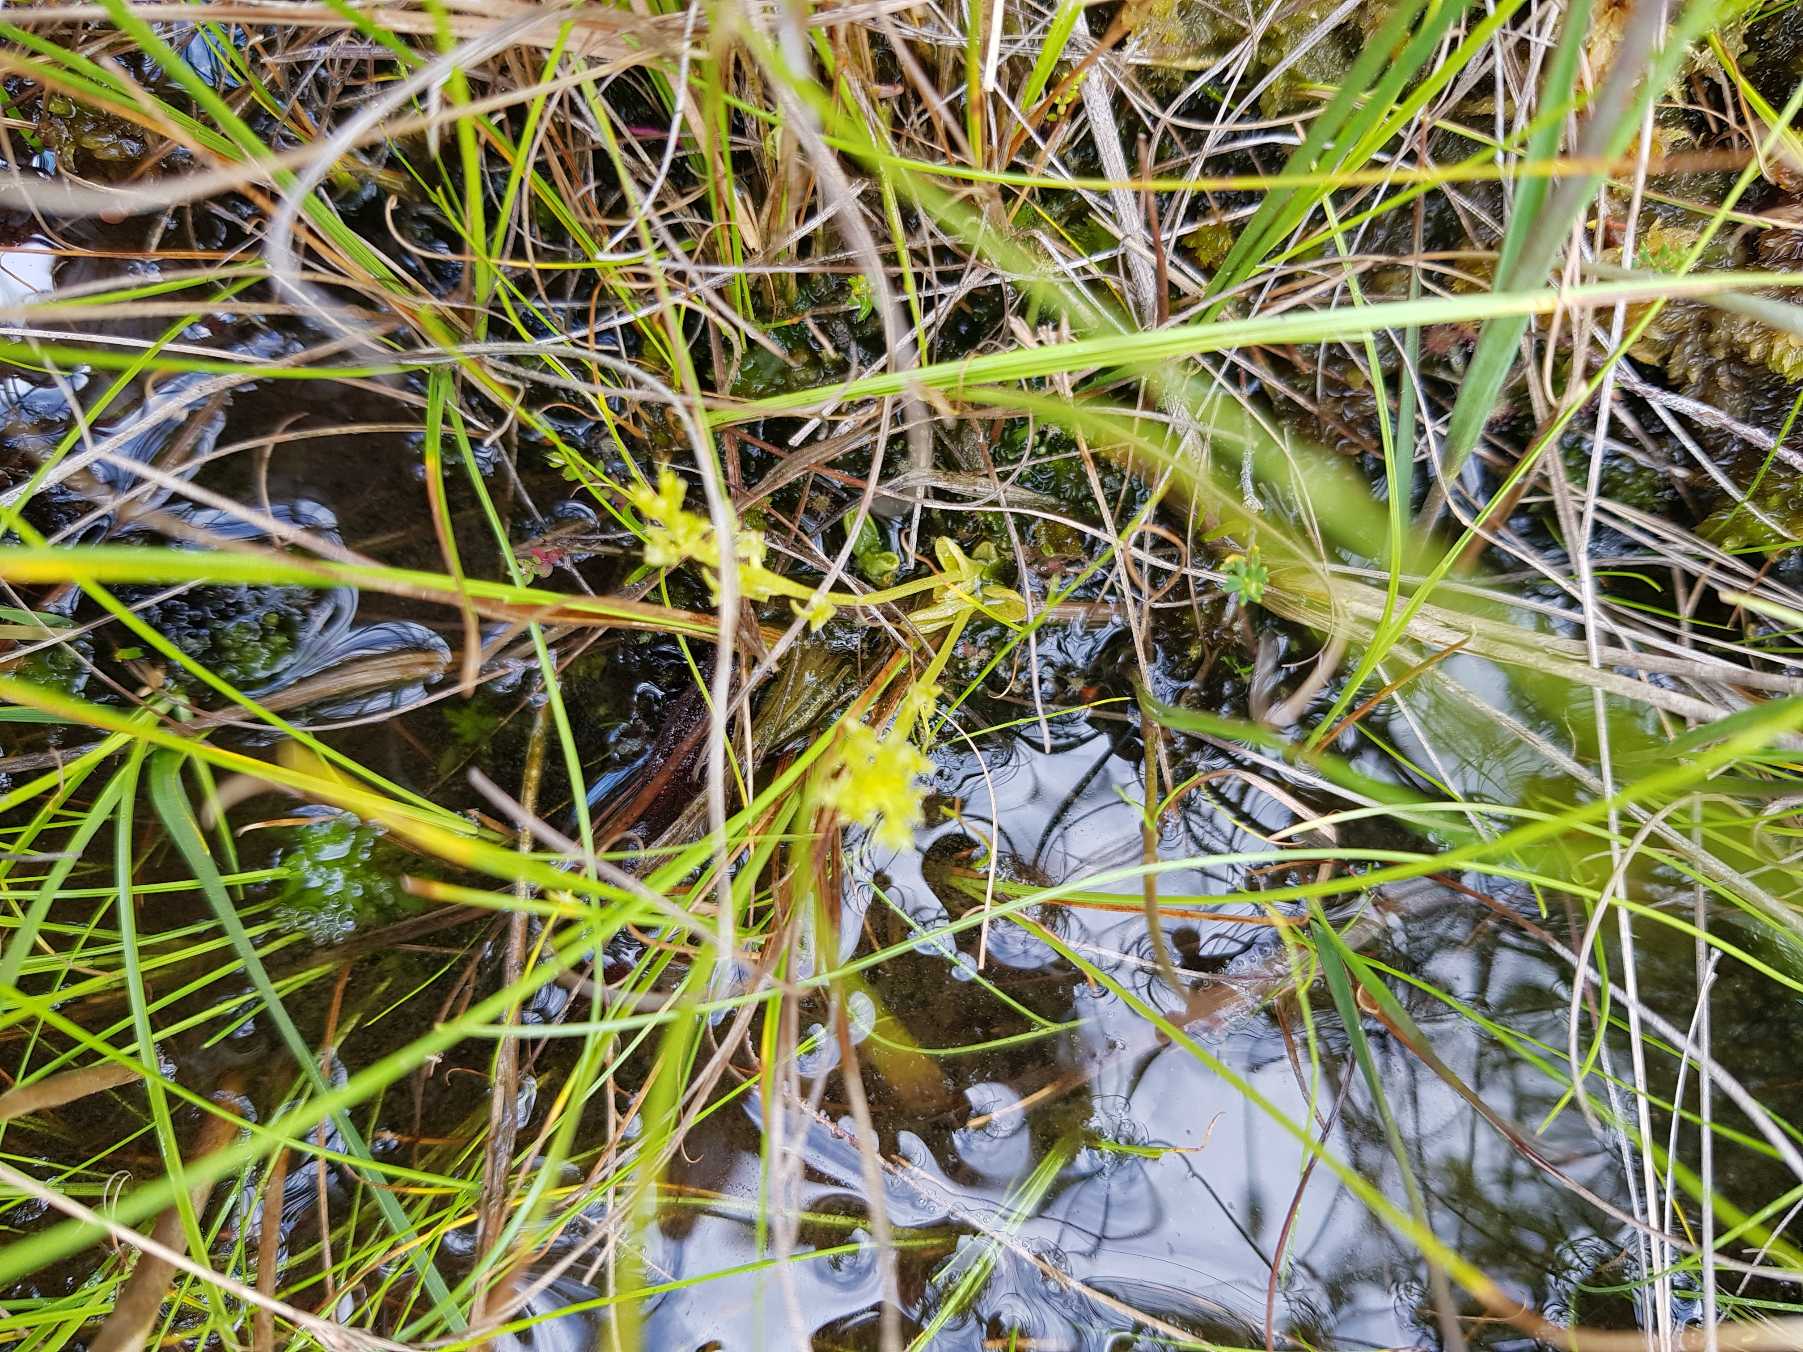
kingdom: Plantae
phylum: Tracheophyta
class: Liliopsida
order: Asparagales
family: Orchidaceae
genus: Hammarbya
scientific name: Hammarbya paludosa
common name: Hjertelæbe
